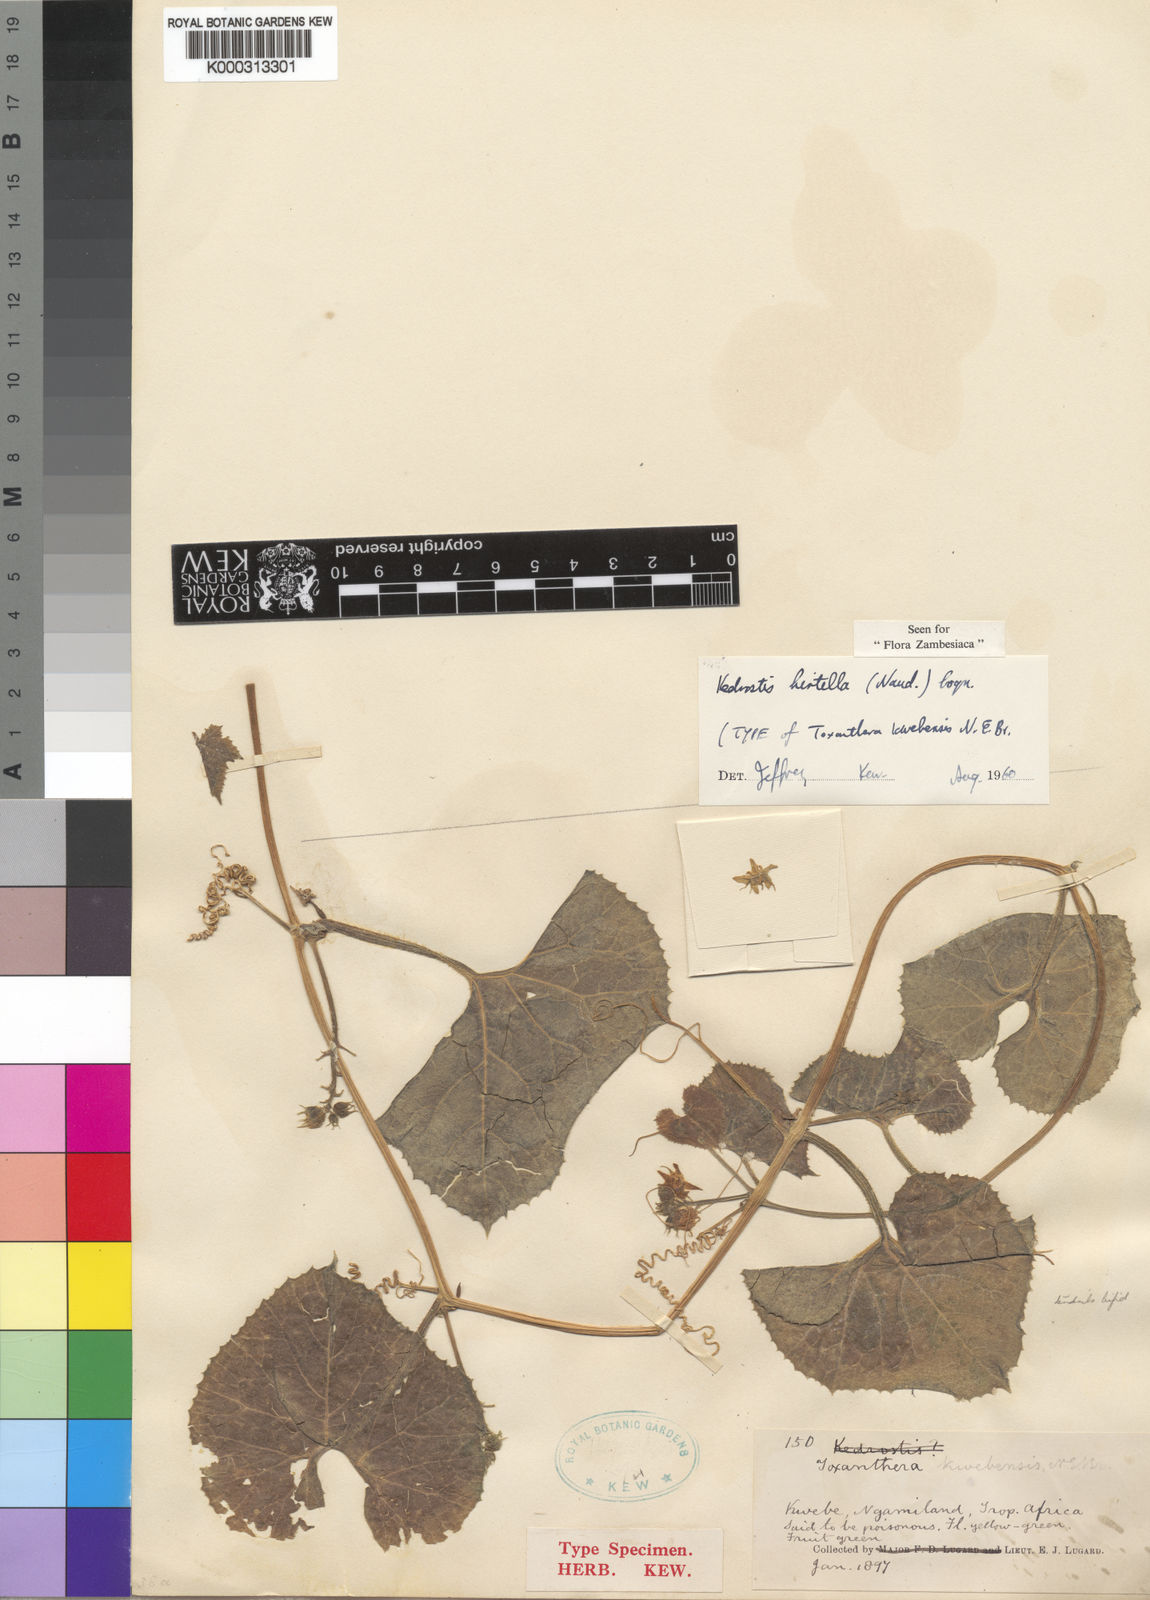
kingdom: Plantae
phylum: Tracheophyta
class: Magnoliopsida
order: Cucurbitales
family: Cucurbitaceae
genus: Kedrostis
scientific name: Kedrostis leloja
